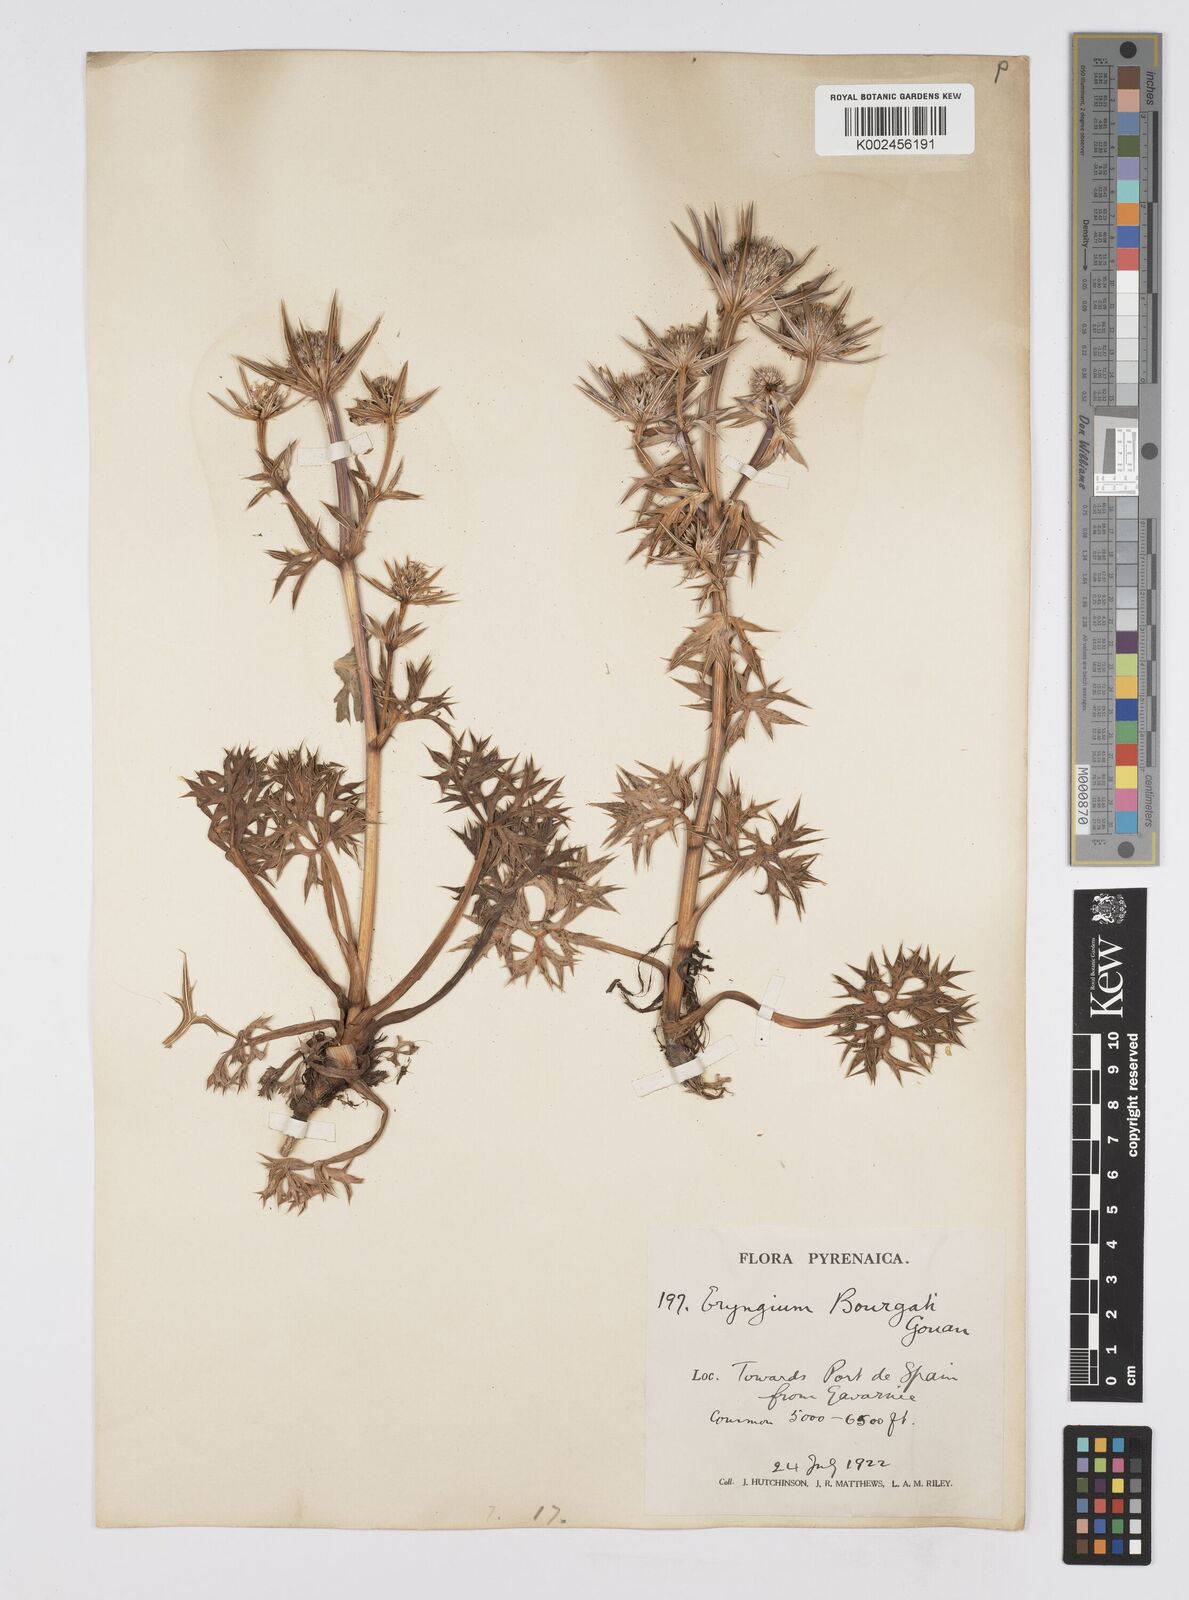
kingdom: Plantae
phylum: Tracheophyta
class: Magnoliopsida
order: Apiales
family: Apiaceae
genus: Eryngium
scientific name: Eryngium bourgatii
